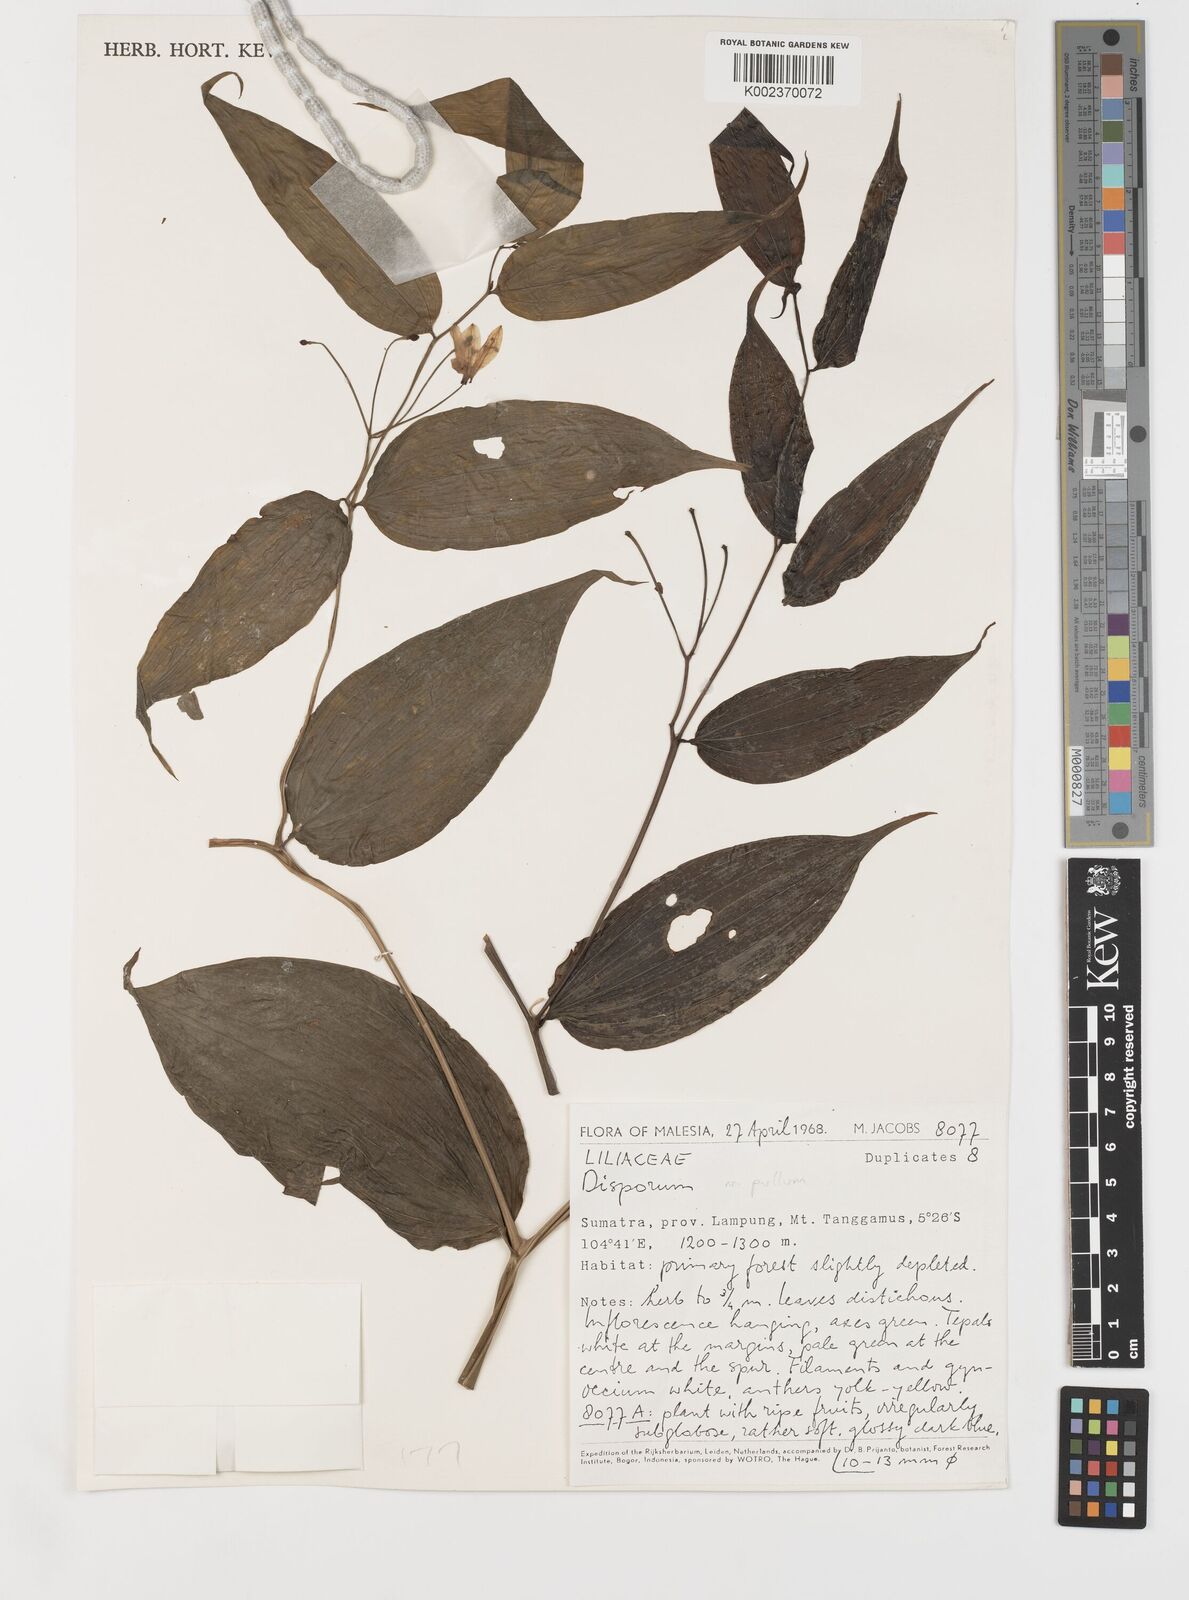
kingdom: Plantae
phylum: Tracheophyta
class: Liliopsida
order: Liliales
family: Colchicaceae
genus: Disporum
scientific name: Disporum cantoniense
